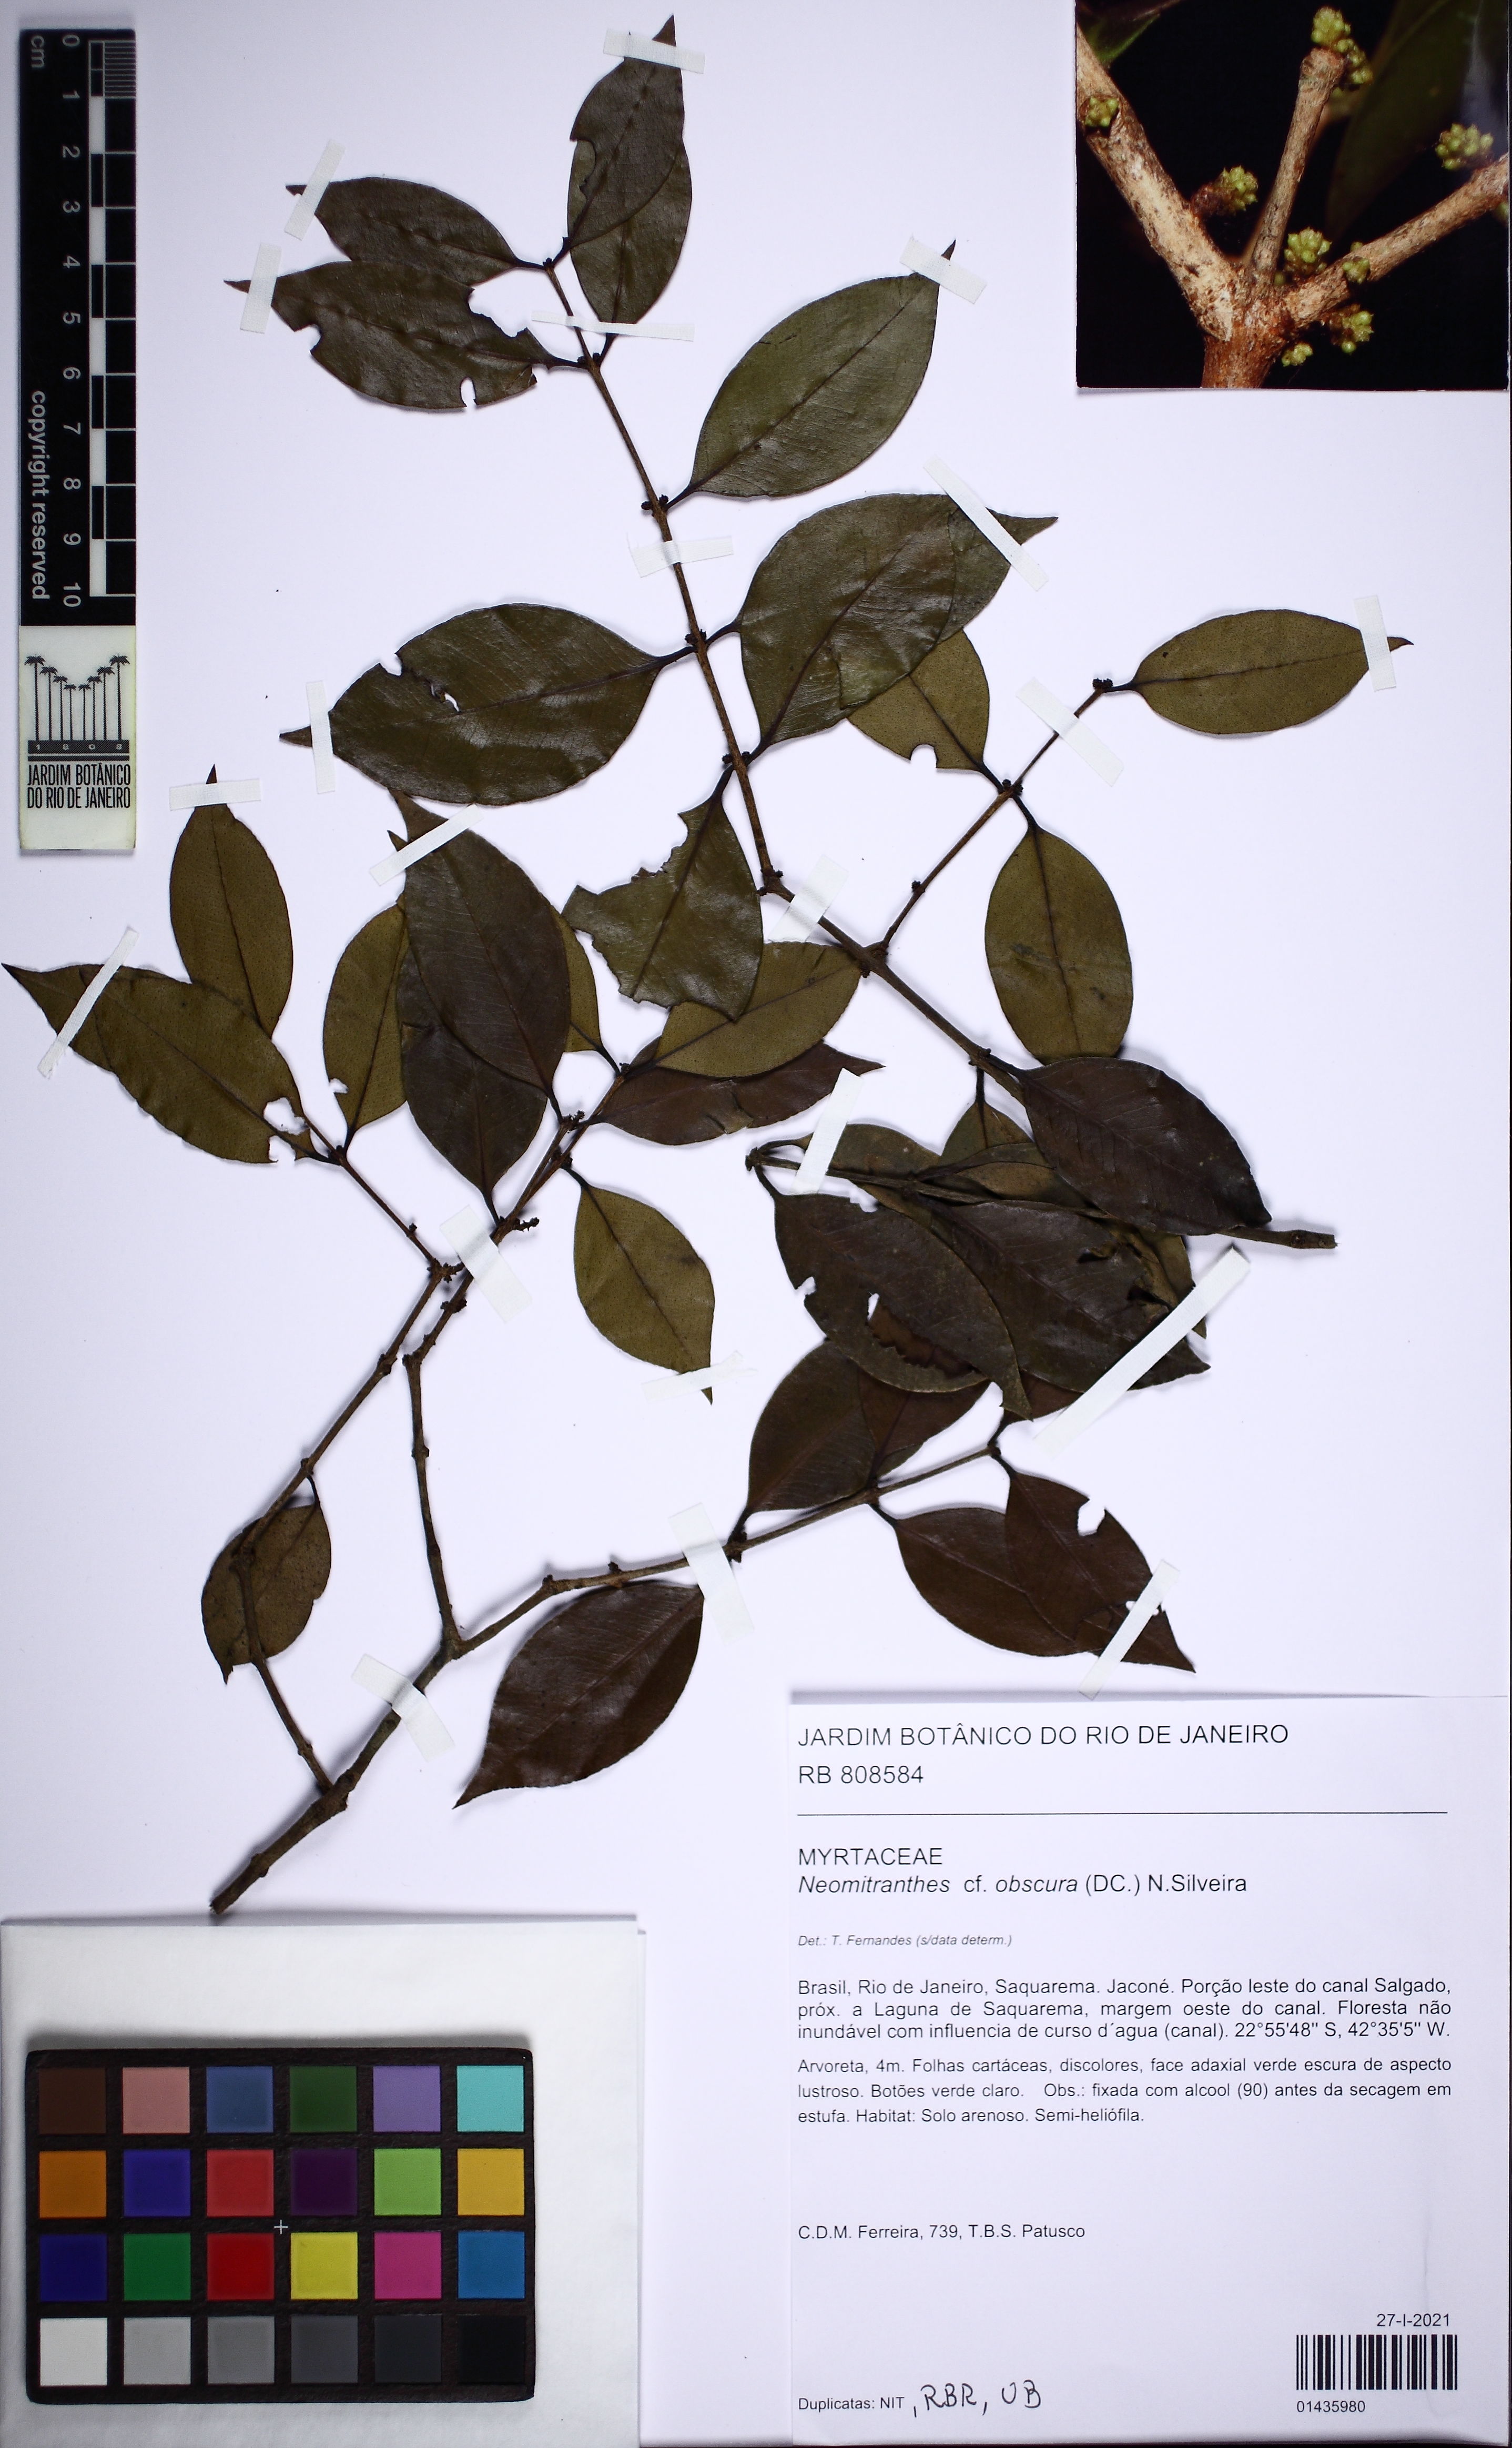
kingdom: Plantae
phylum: Tracheophyta
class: Magnoliopsida
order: Myrtales
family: Myrtaceae
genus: Neomitranthes
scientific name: Neomitranthes obscura
